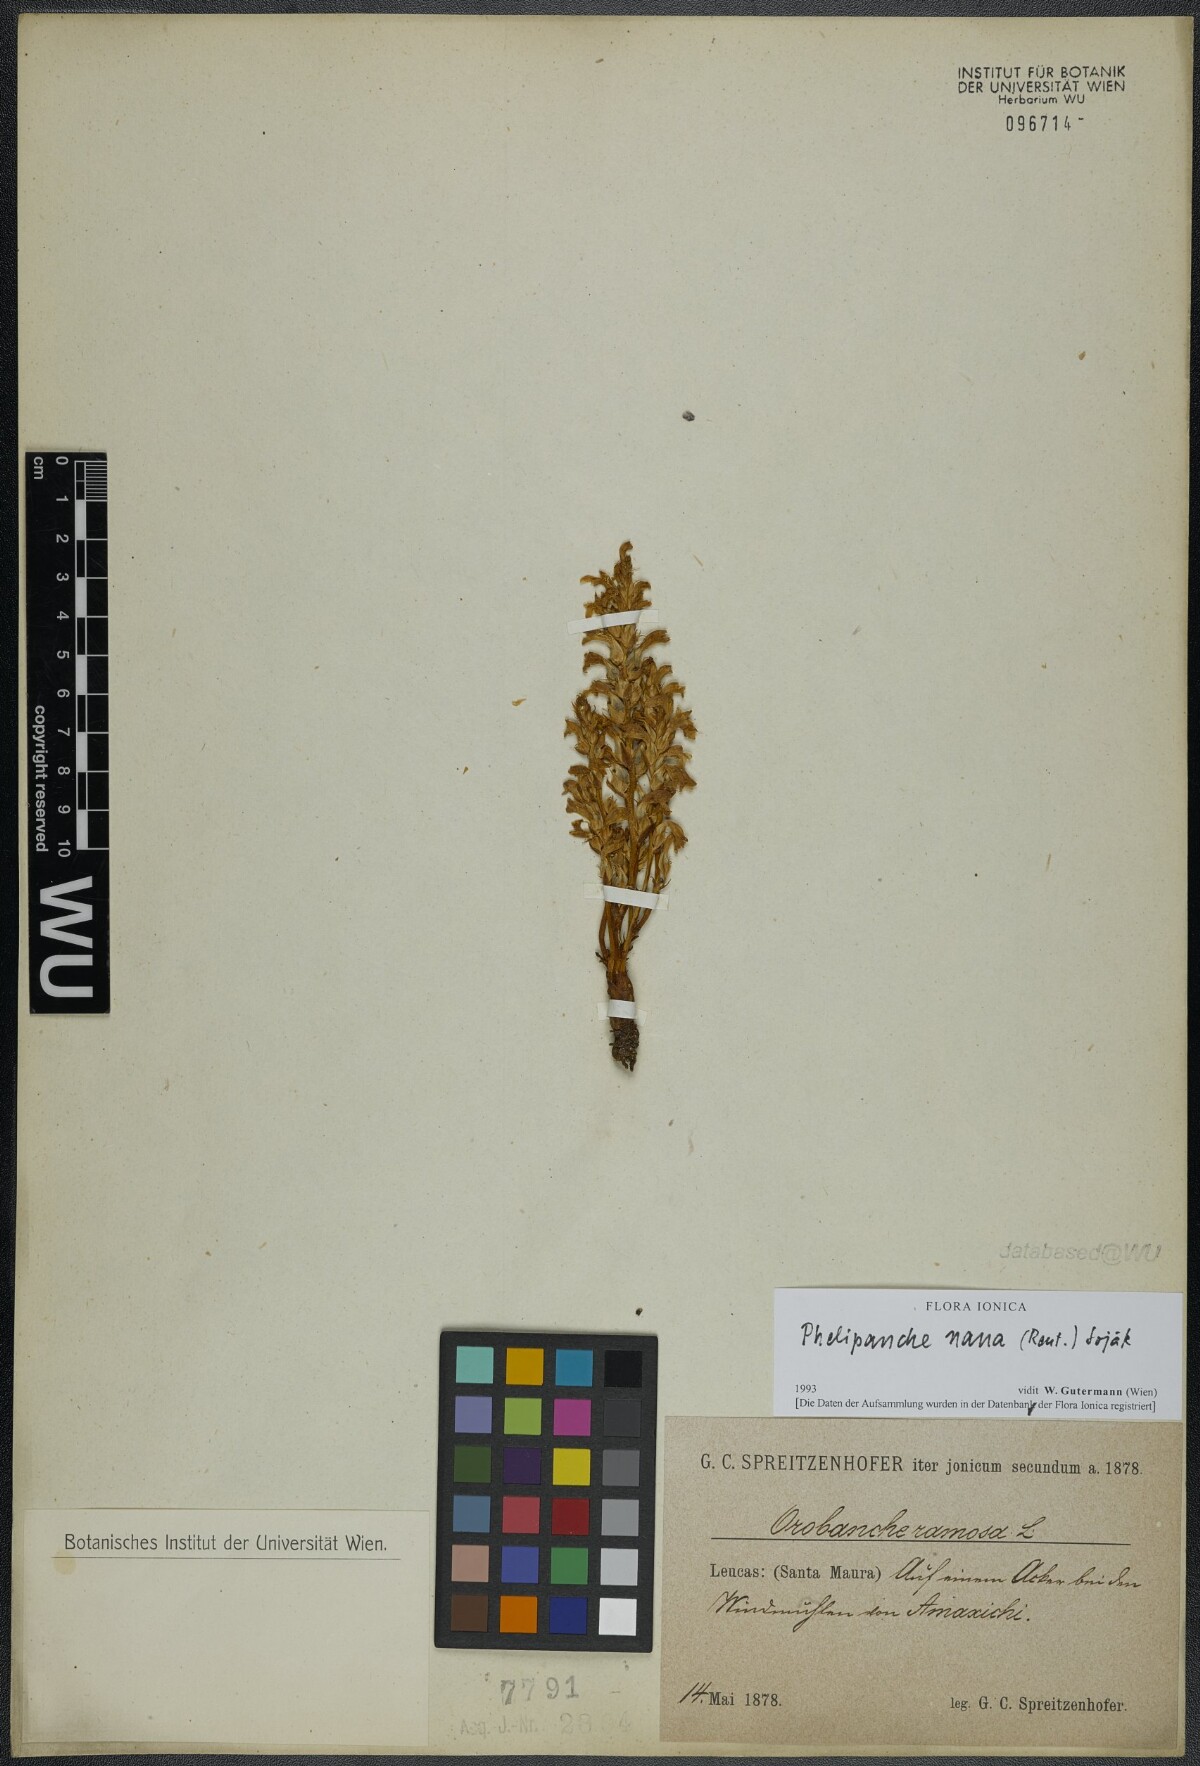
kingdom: Plantae
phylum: Tracheophyta
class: Magnoliopsida
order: Lamiales
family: Orobanchaceae
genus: Phelipanche
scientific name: Phelipanche ramosa
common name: Branched broomrape
